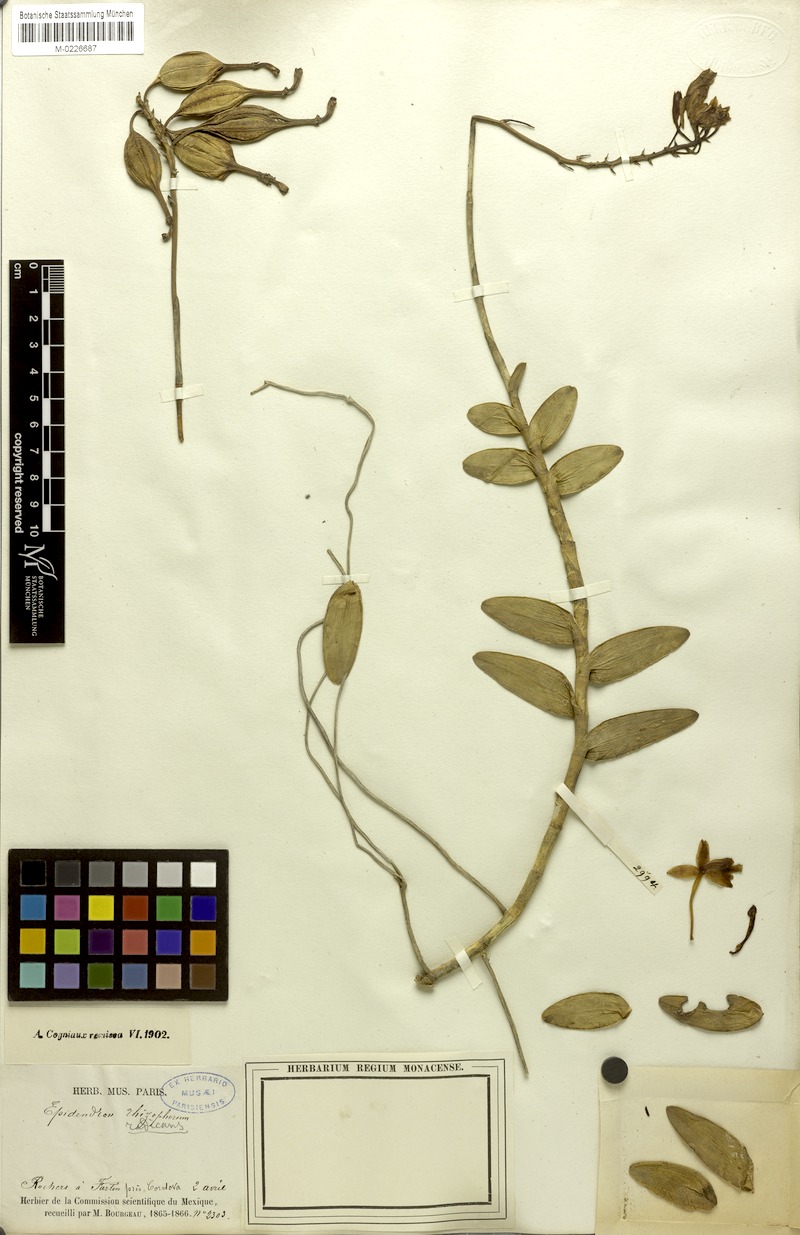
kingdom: Plantae
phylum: Tracheophyta
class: Liliopsida
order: Asparagales
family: Orchidaceae
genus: Epidendrum
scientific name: Epidendrum radicans
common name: Fire star orchid
